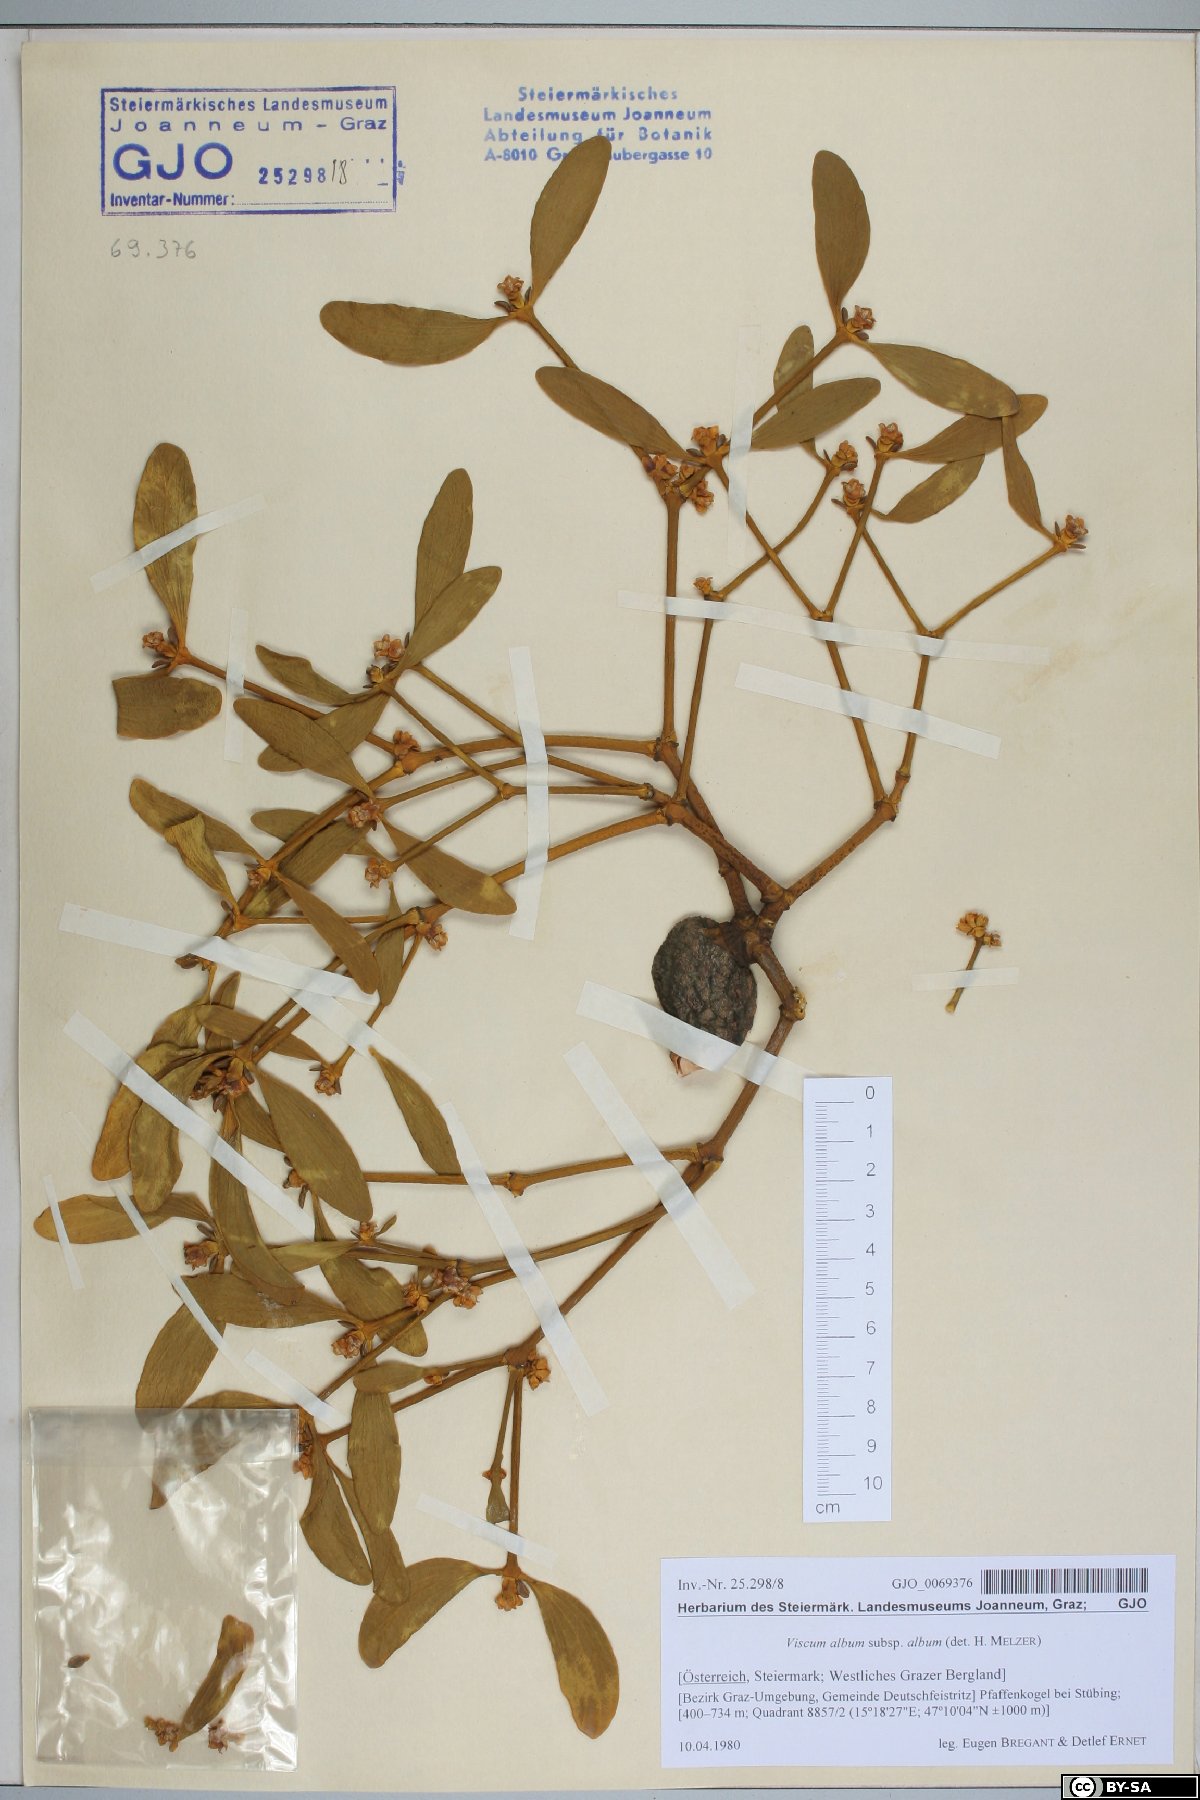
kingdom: Plantae
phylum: Tracheophyta
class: Magnoliopsida
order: Santalales
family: Viscaceae
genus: Viscum
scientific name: Viscum album
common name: Mistletoe
